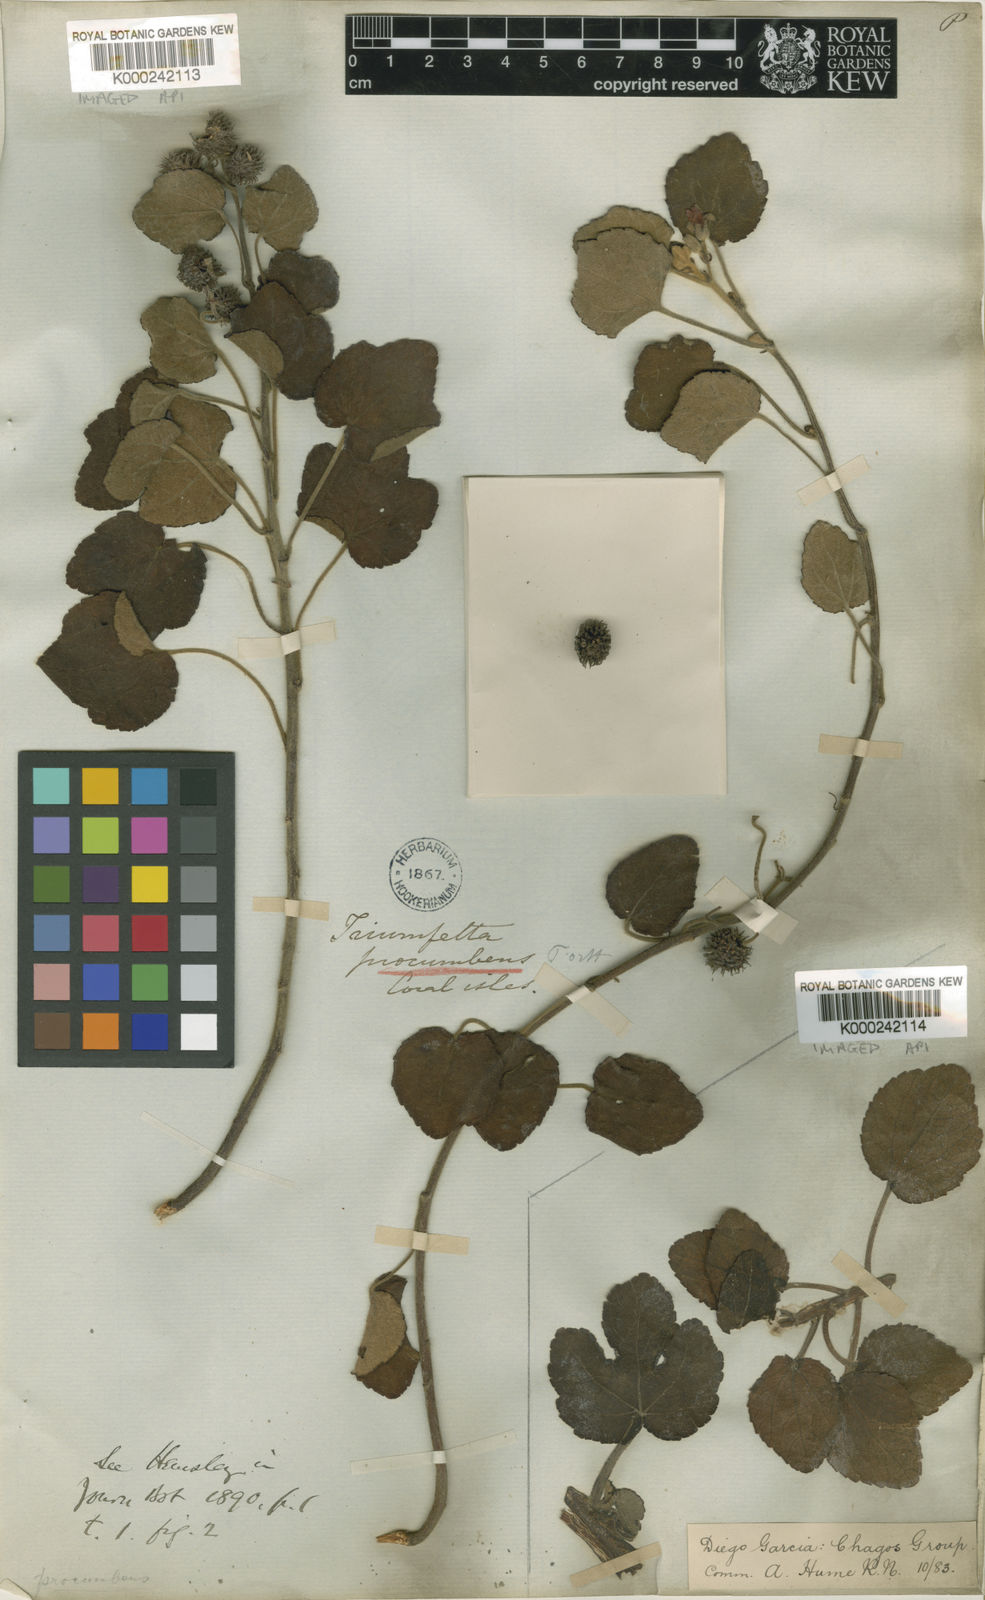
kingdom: Plantae
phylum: Tracheophyta
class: Magnoliopsida
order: Malvales
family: Malvaceae
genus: Triumfetta
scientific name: Triumfetta repens
